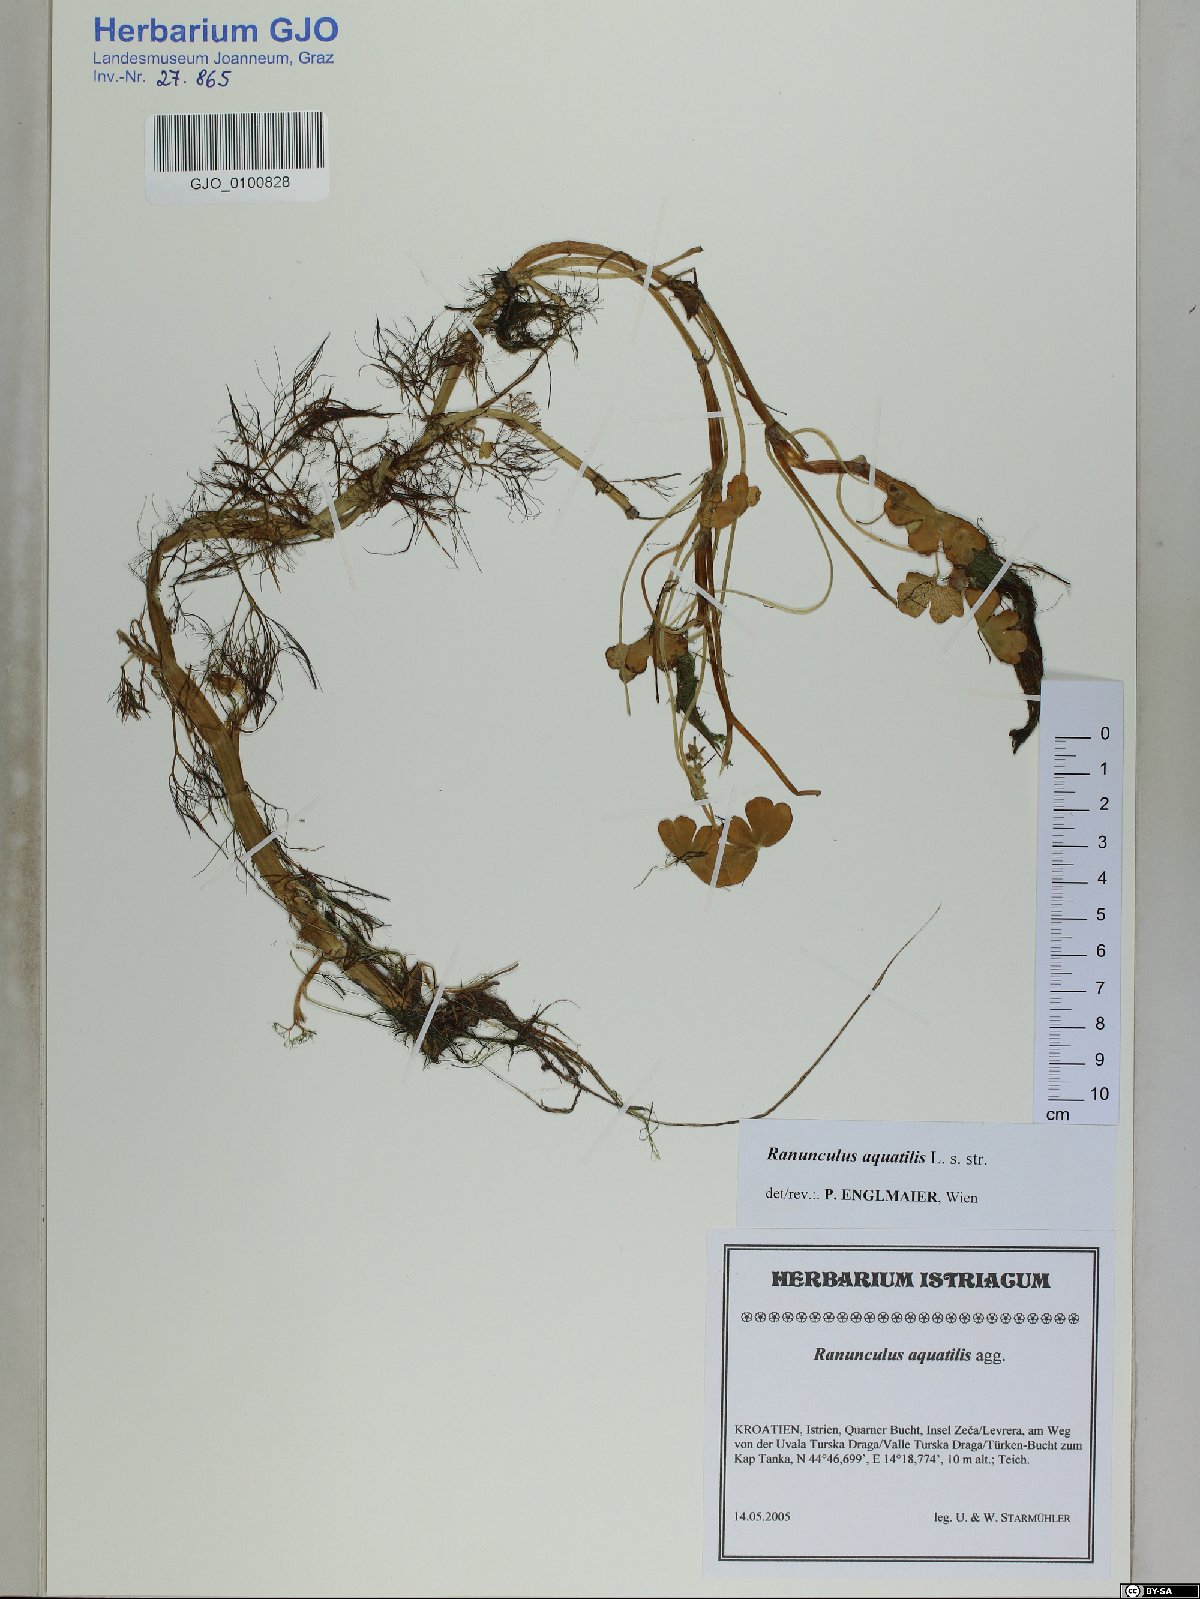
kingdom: Plantae
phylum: Tracheophyta
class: Magnoliopsida
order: Ranunculales
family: Ranunculaceae
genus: Ranunculus
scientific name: Ranunculus aquatilis
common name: Common water-crowfoot
